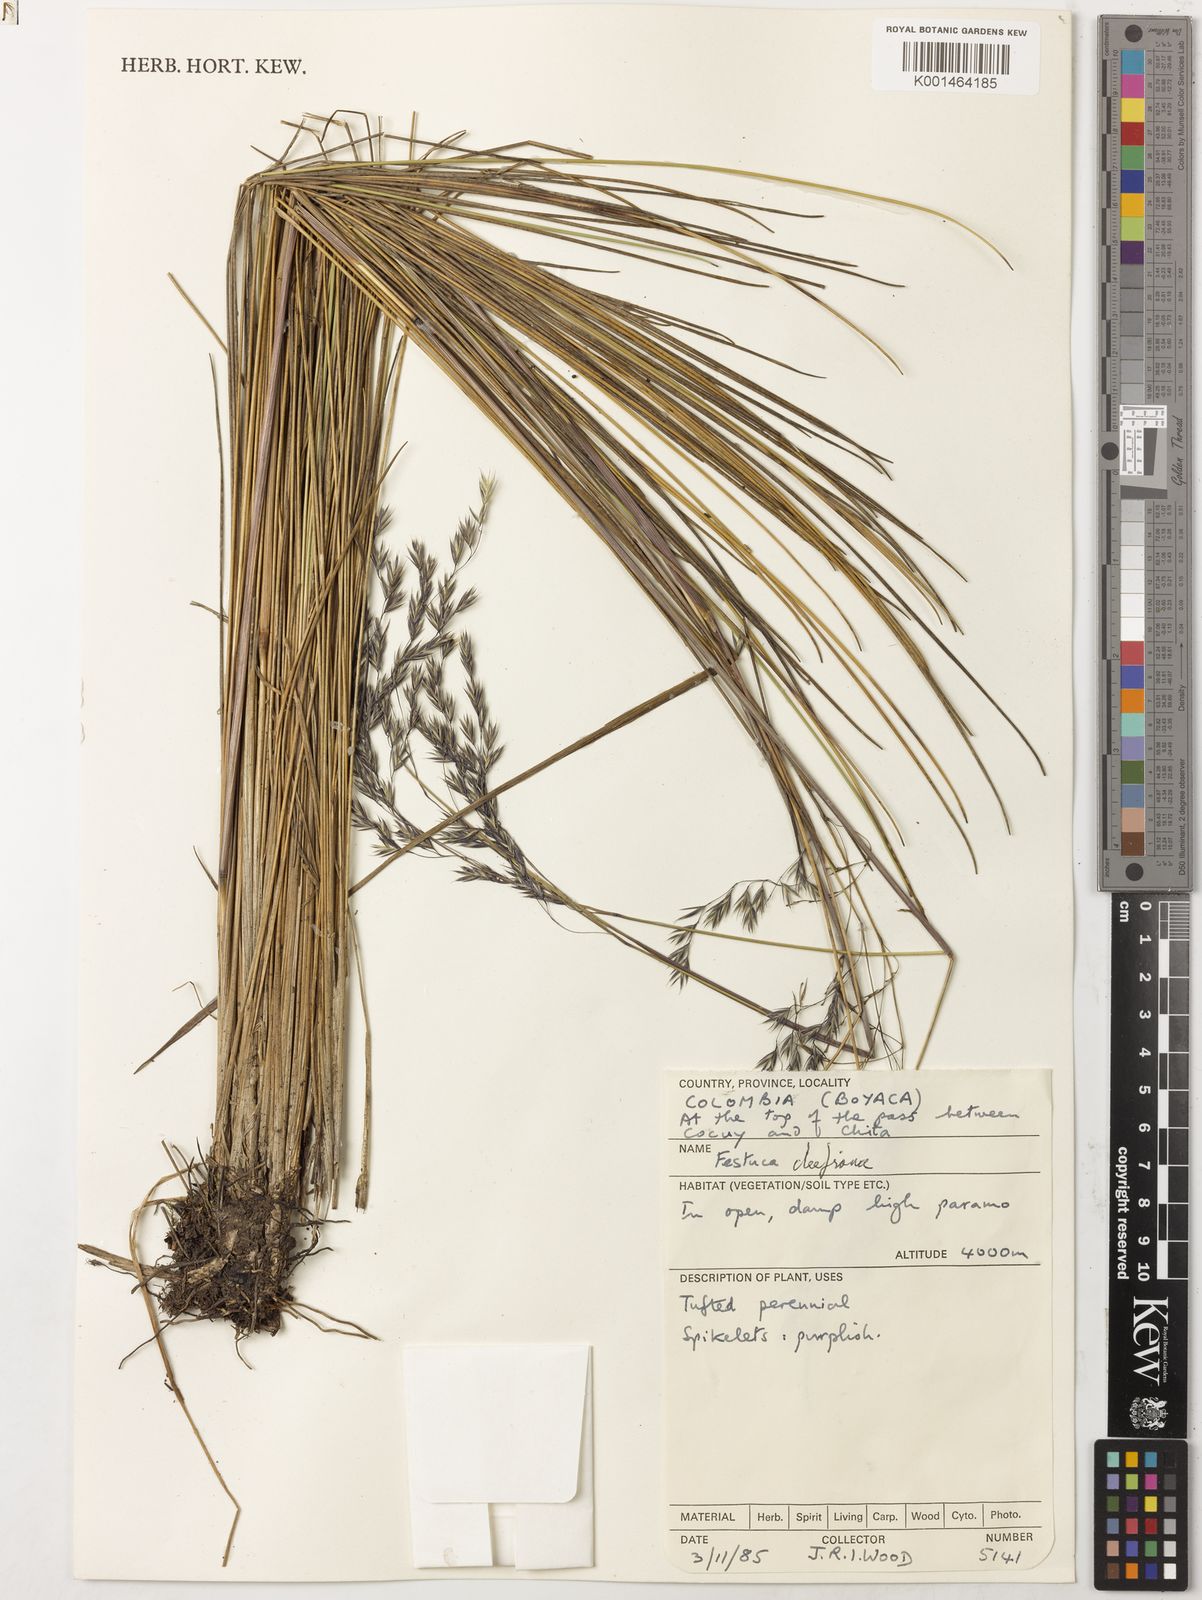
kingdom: Plantae
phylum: Tracheophyta
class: Liliopsida
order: Poales
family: Poaceae
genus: Festuca
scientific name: Festuca cleefiana
